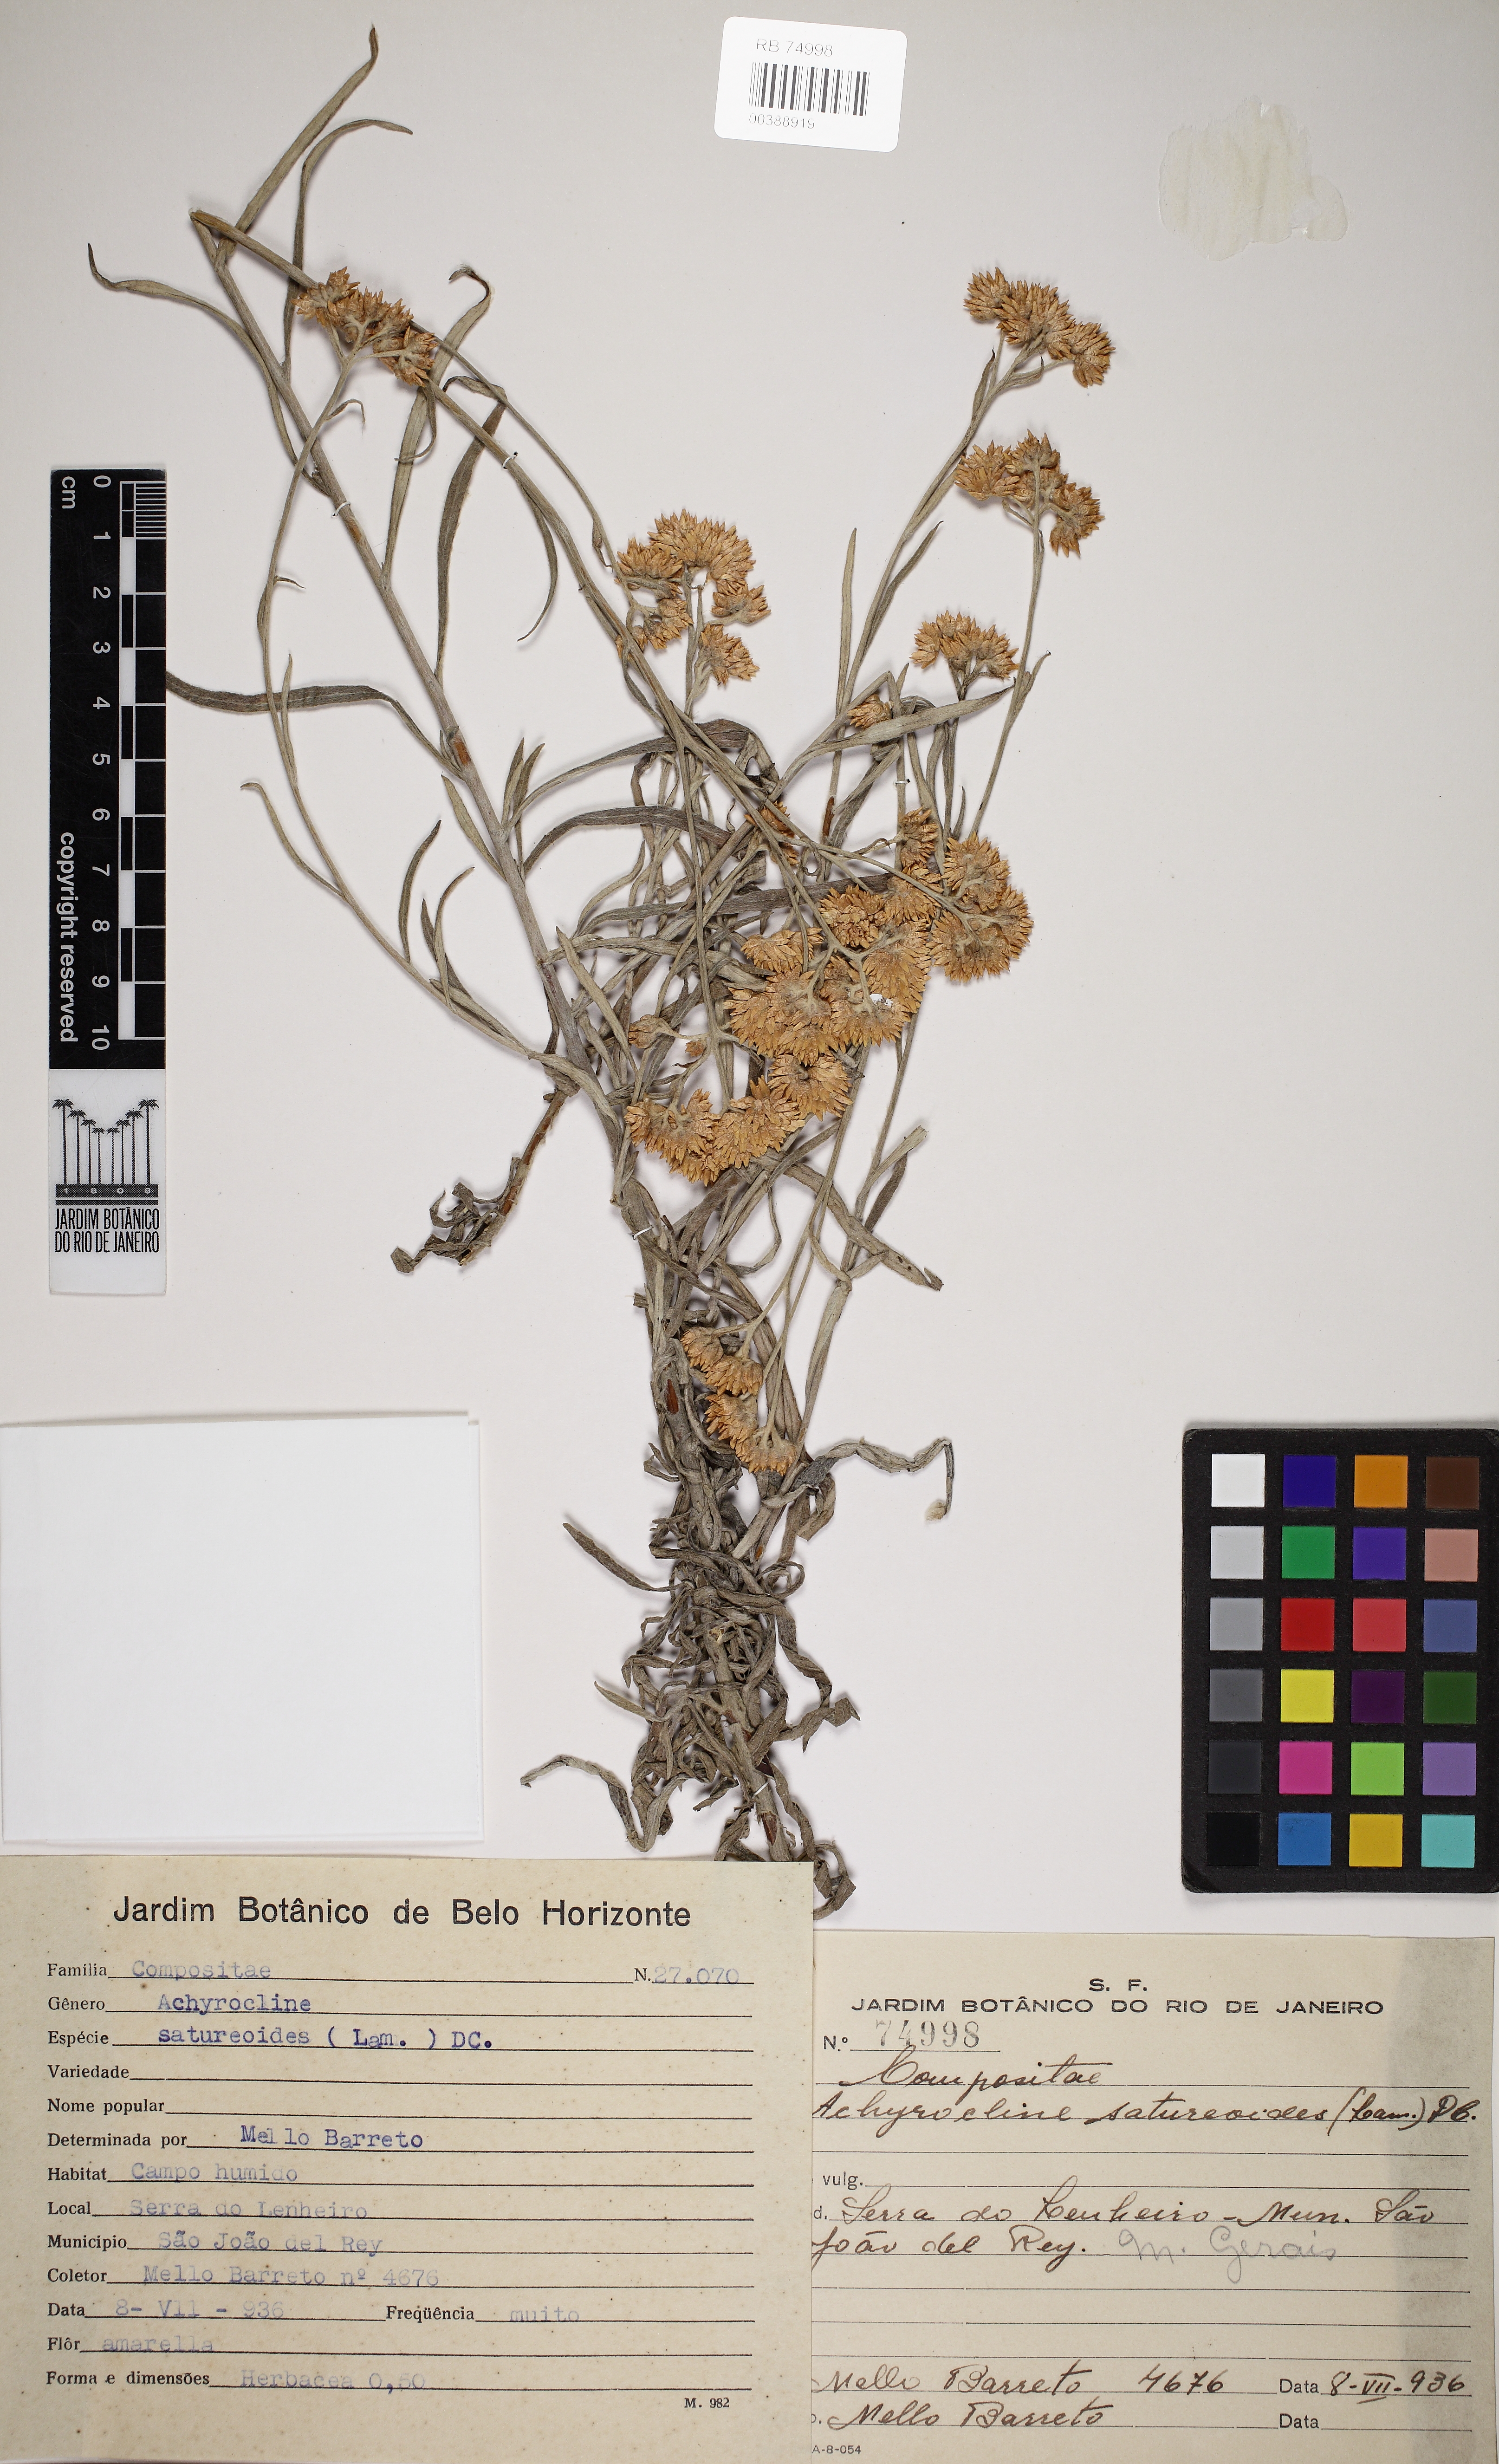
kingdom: Plantae
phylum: Tracheophyta
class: Magnoliopsida
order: Asterales
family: Asteraceae
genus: Achyrocline
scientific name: Achyrocline satureioides
